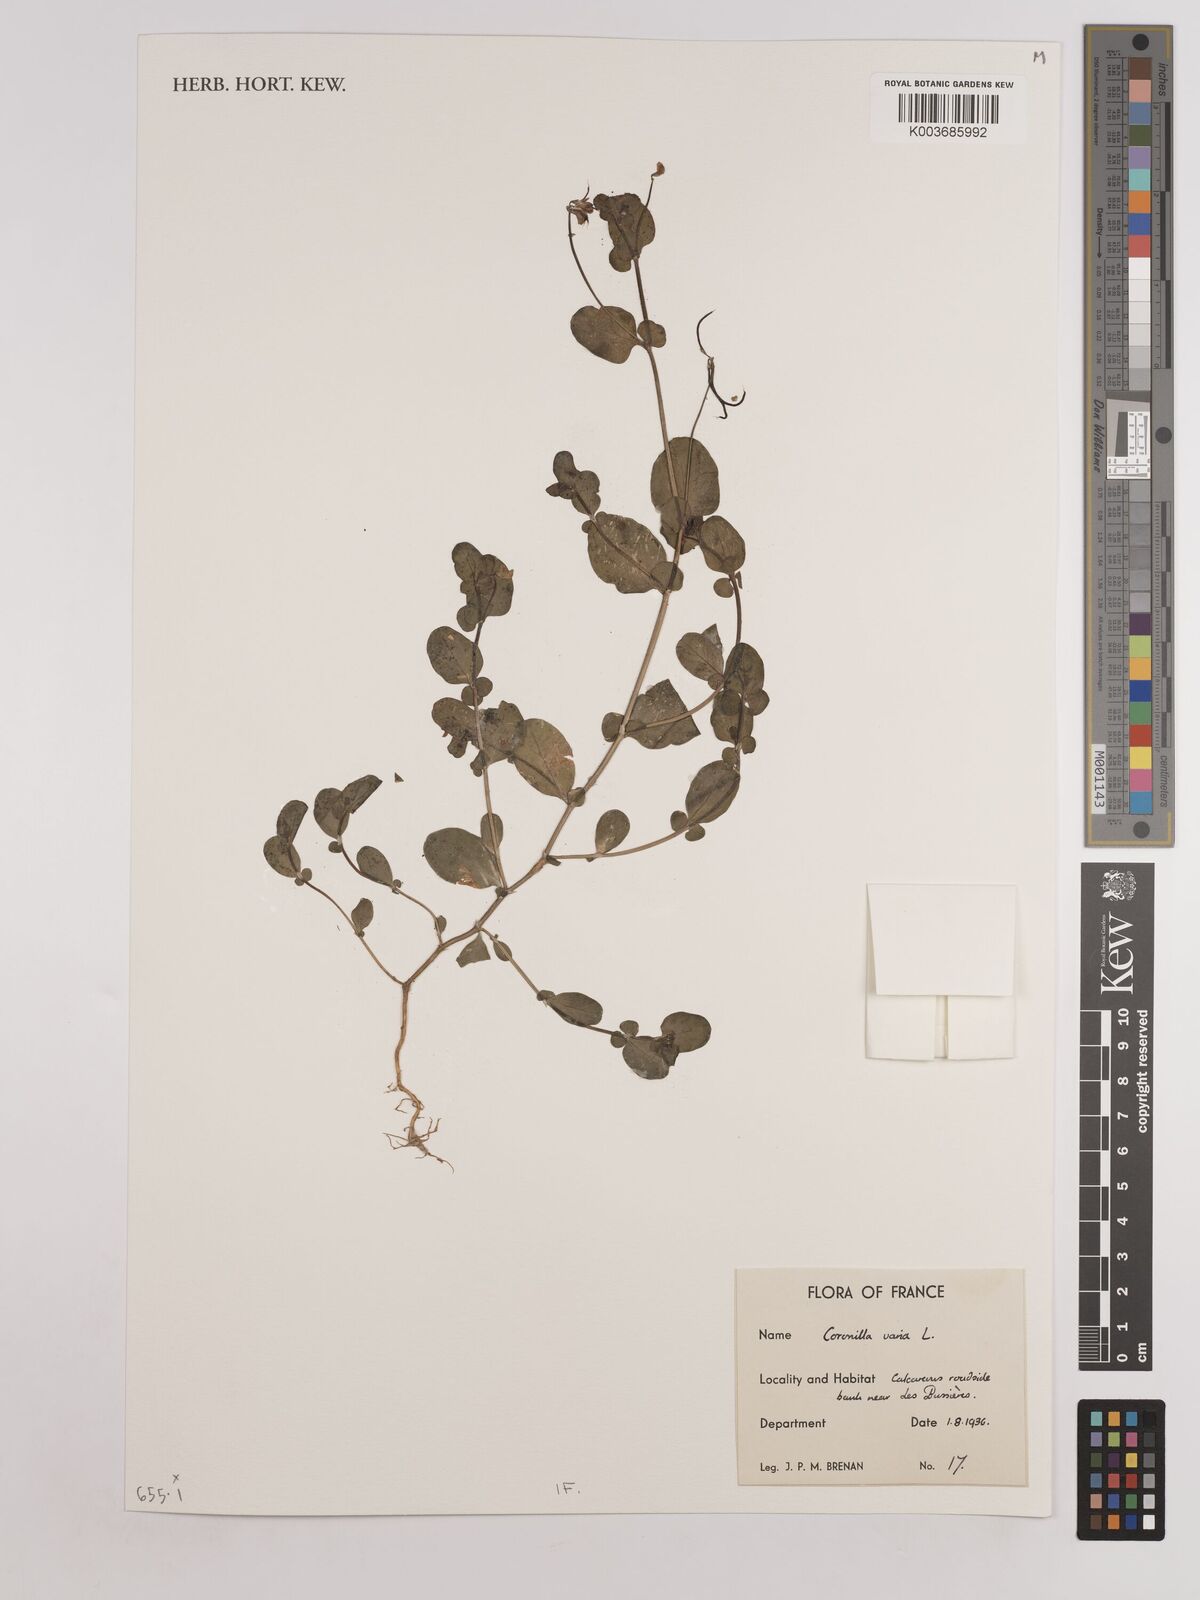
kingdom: Plantae
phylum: Tracheophyta
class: Magnoliopsida
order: Fabales
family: Fabaceae
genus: Coronilla
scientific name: Coronilla varia
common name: Crownvetch
